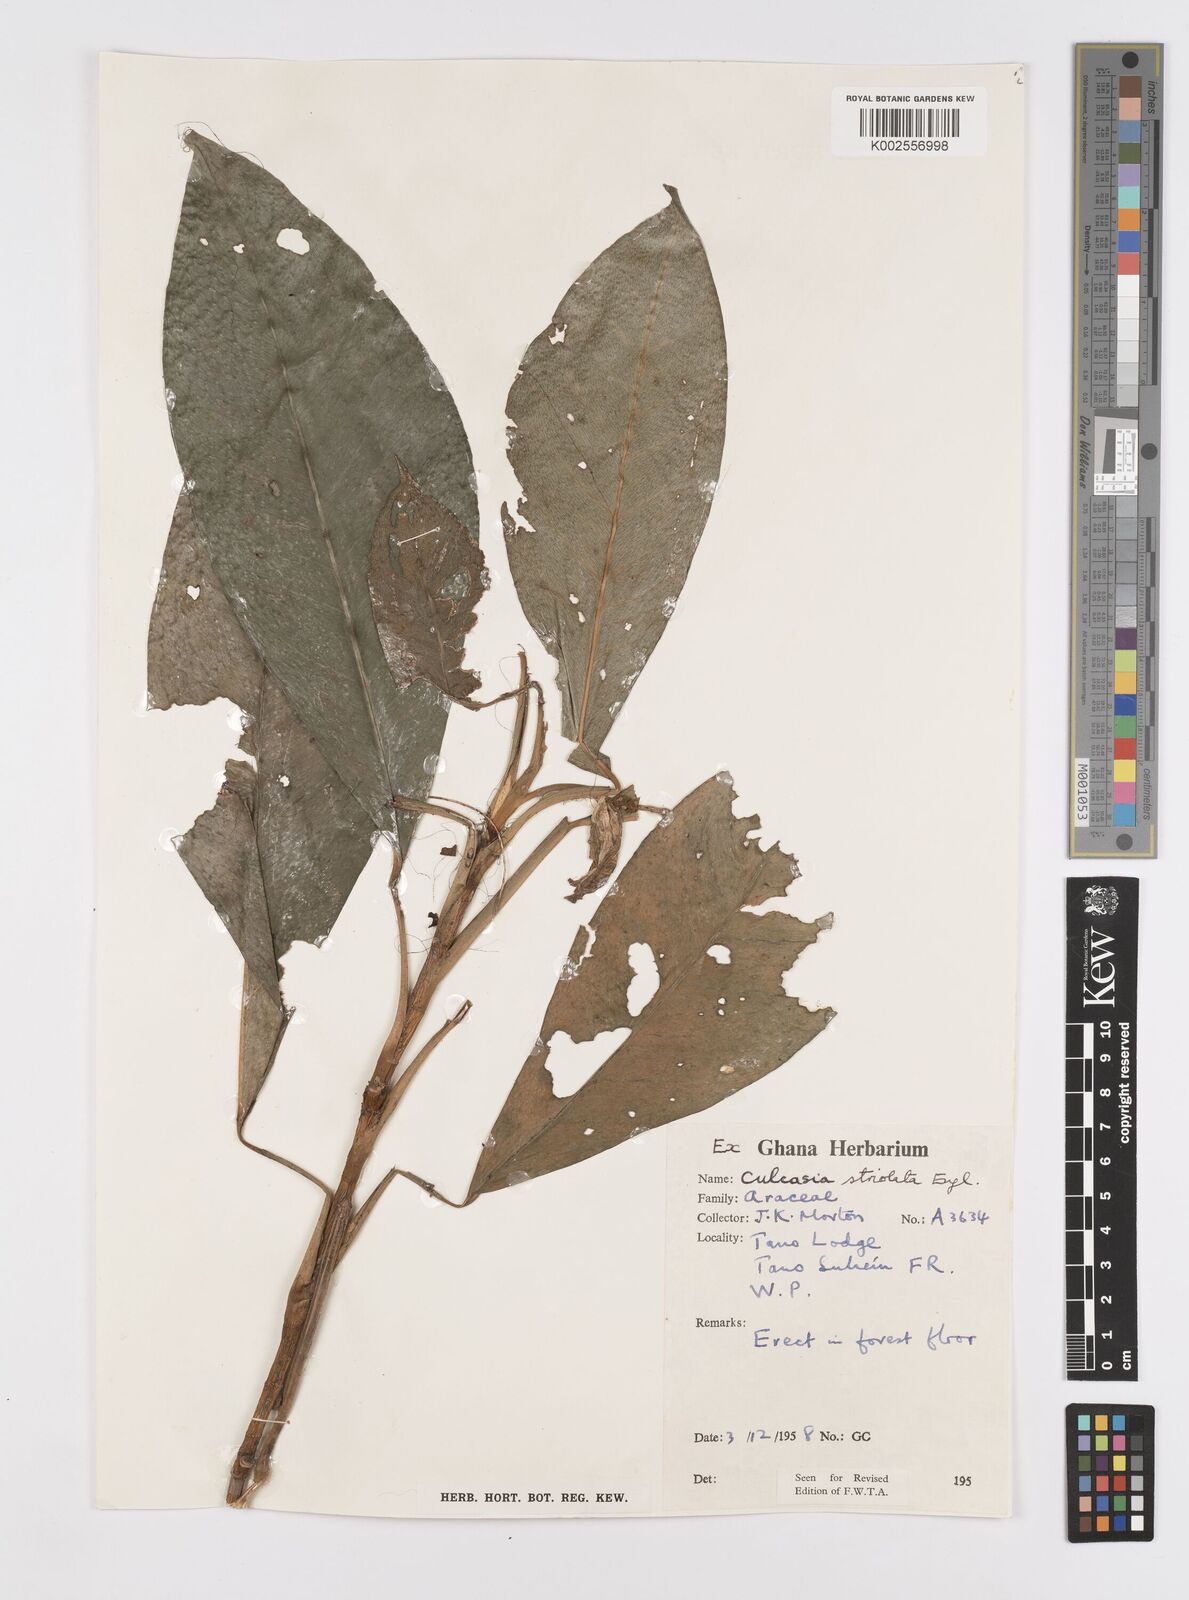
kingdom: Plantae
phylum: Tracheophyta
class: Liliopsida
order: Alismatales
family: Araceae
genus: Culcasia
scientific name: Culcasia striolata
